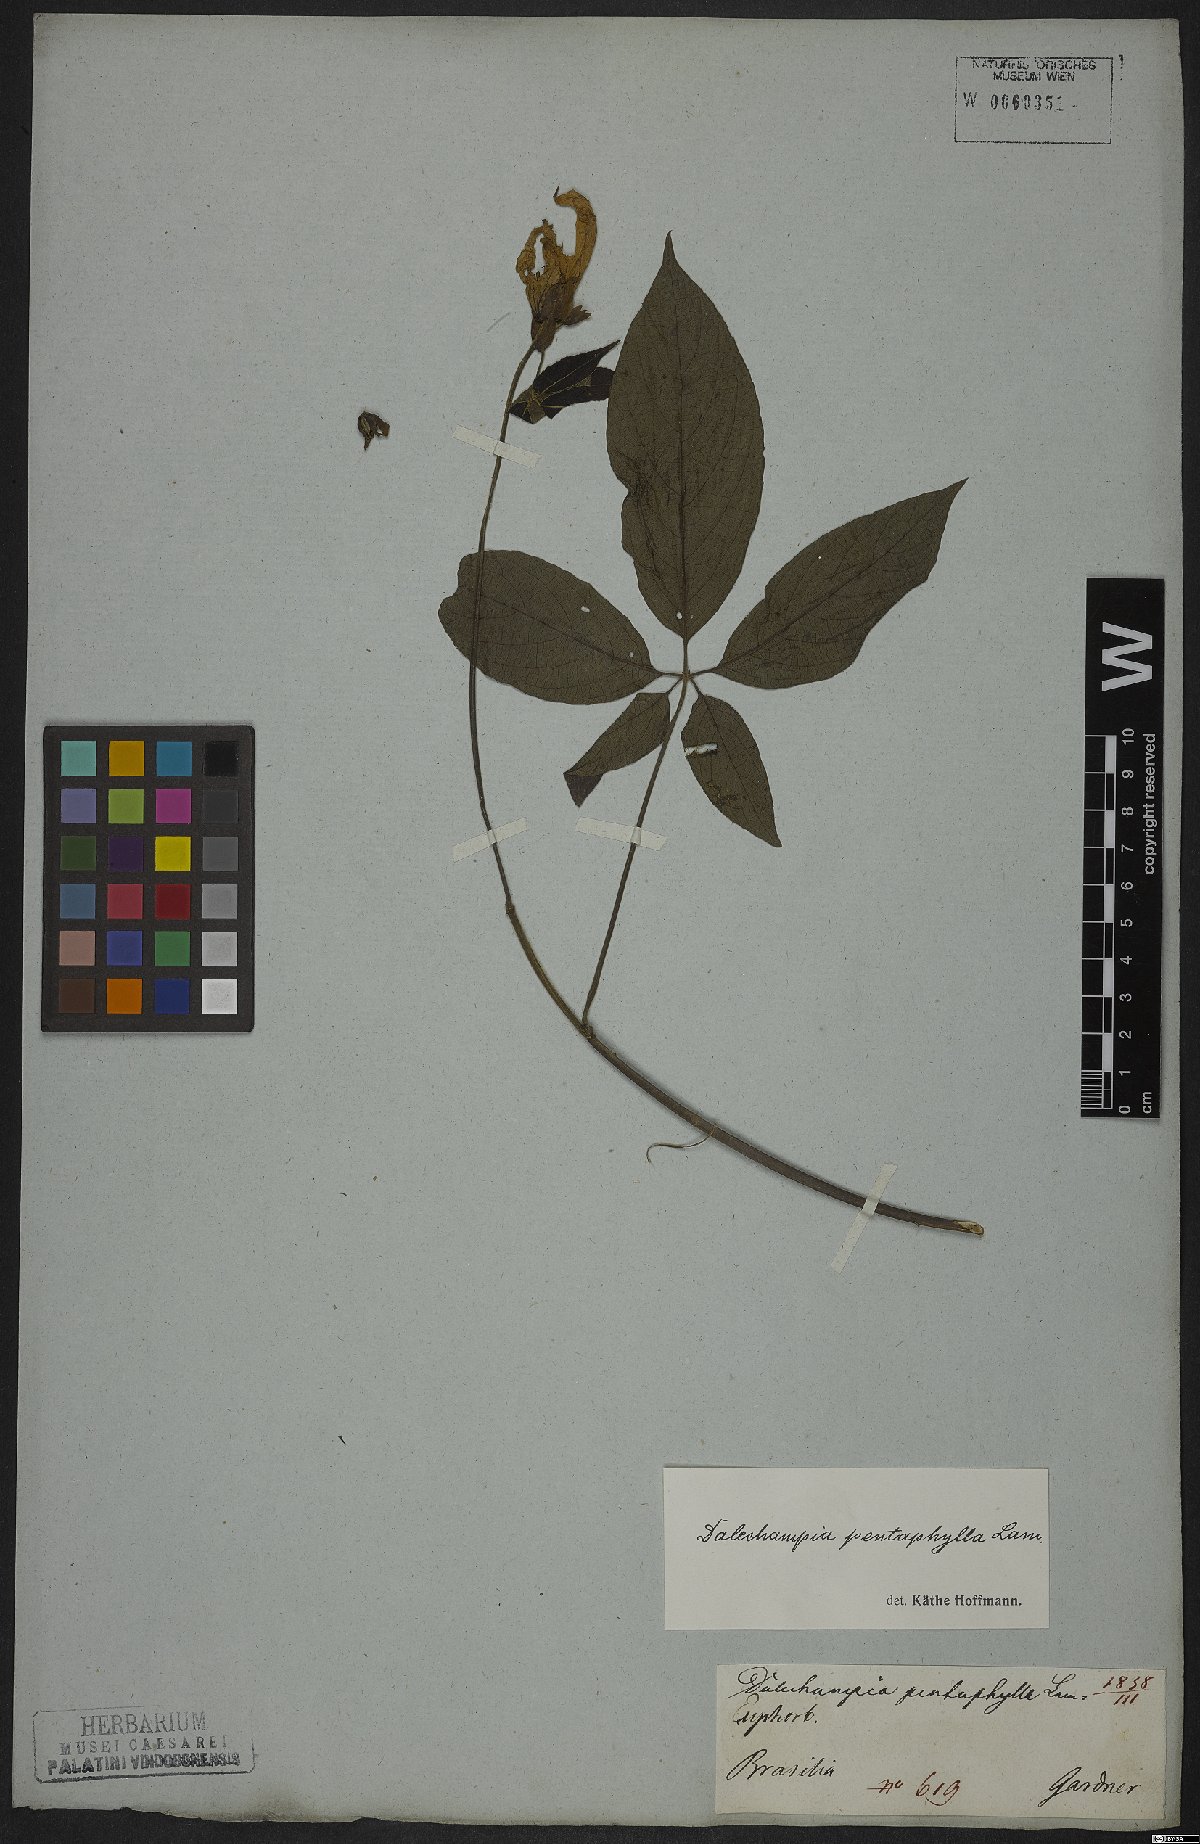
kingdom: Plantae
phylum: Tracheophyta
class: Magnoliopsida
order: Malpighiales
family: Euphorbiaceae
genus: Dalechampia
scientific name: Dalechampia pentaphylla
